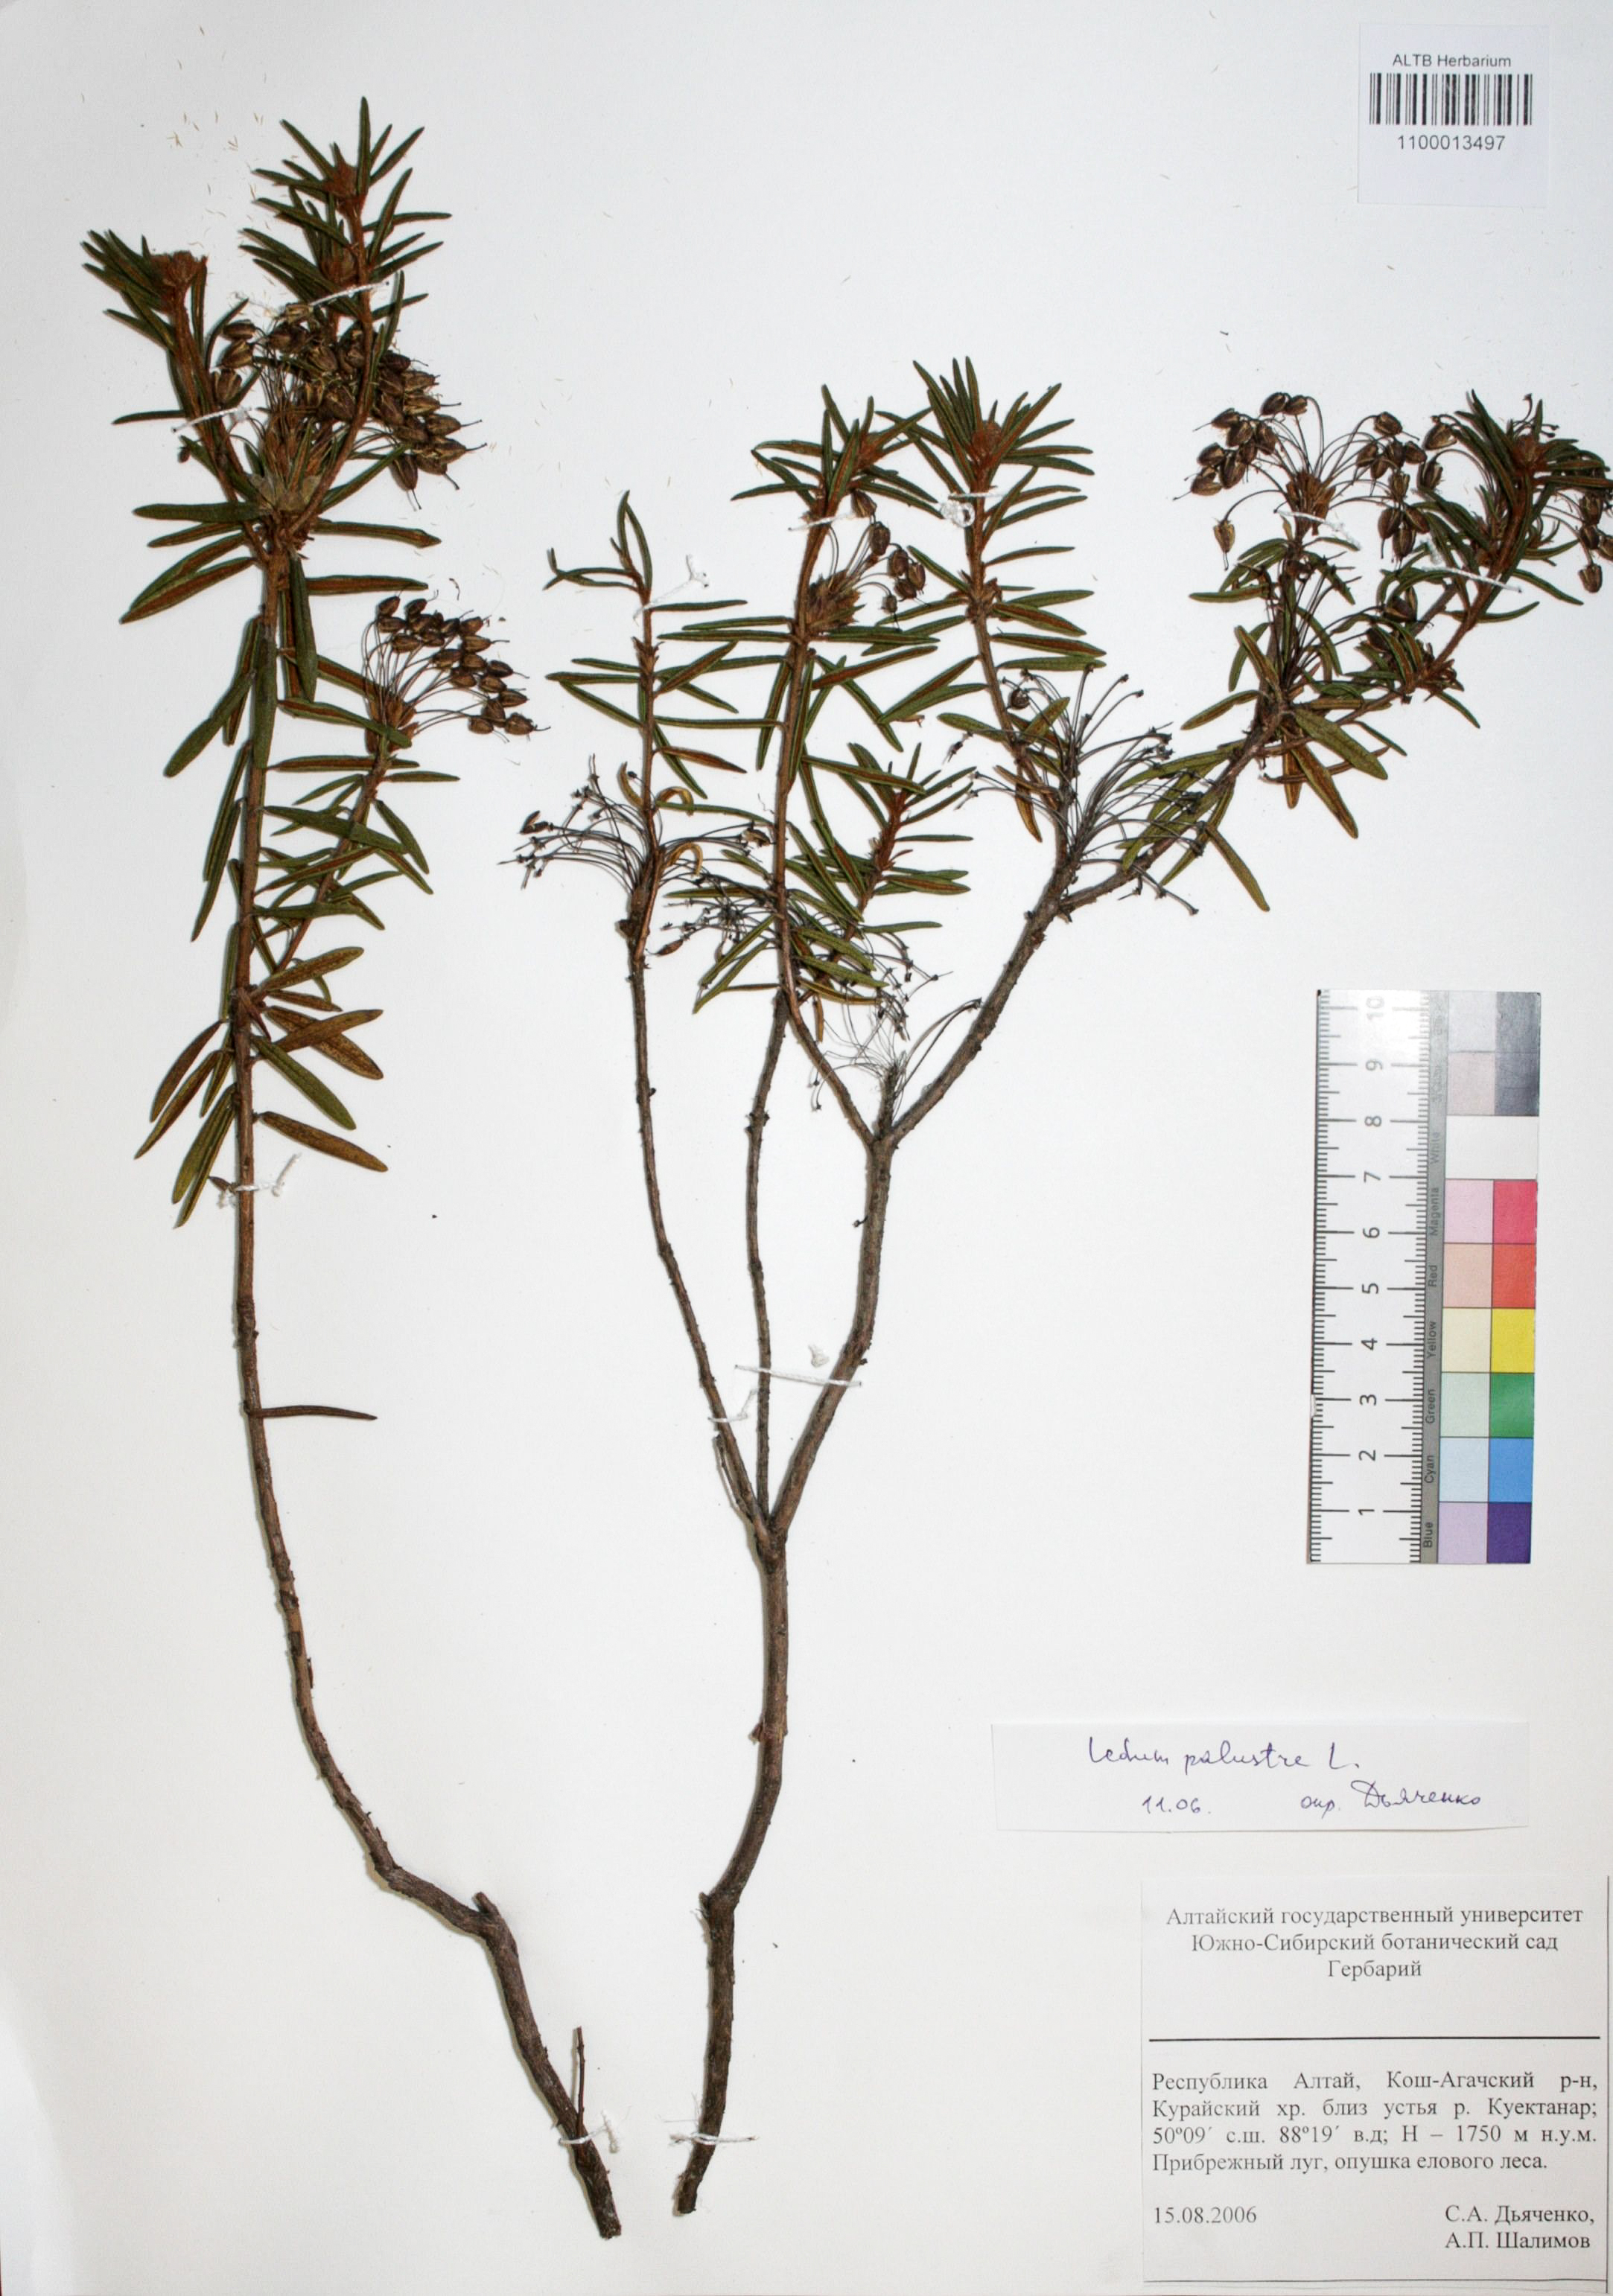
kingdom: Plantae
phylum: Tracheophyta
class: Magnoliopsida
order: Ericales
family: Ericaceae
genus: Rhododendron
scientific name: Rhododendron tomentosum
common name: Marsh labrador tea
